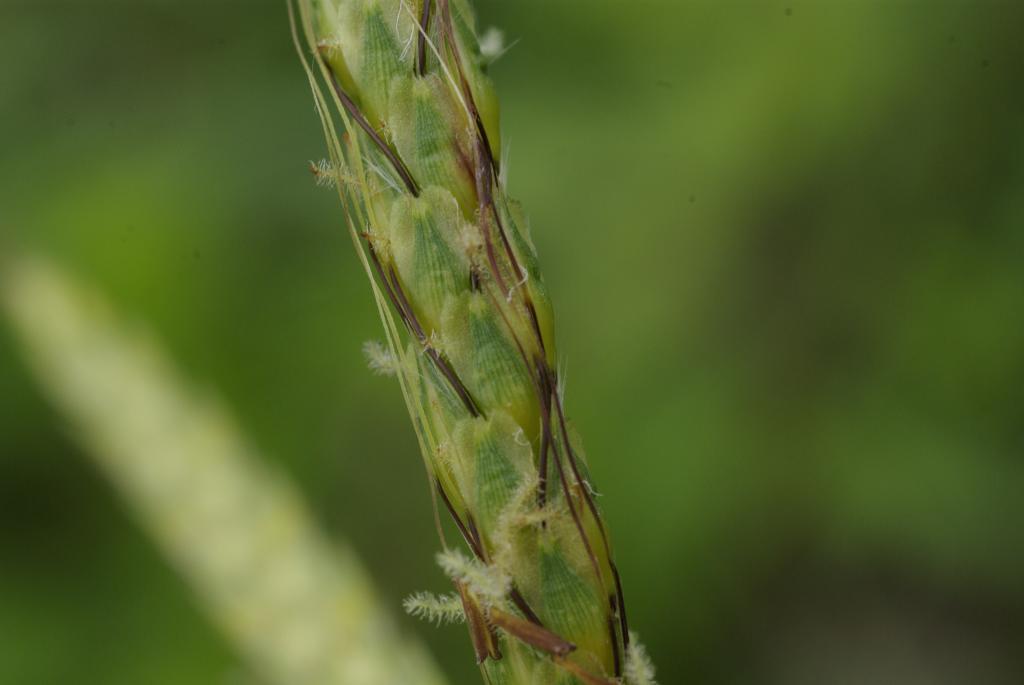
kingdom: Plantae
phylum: Tracheophyta
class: Liliopsida
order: Poales
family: Poaceae
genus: Polytrias
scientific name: Polytrias indica
